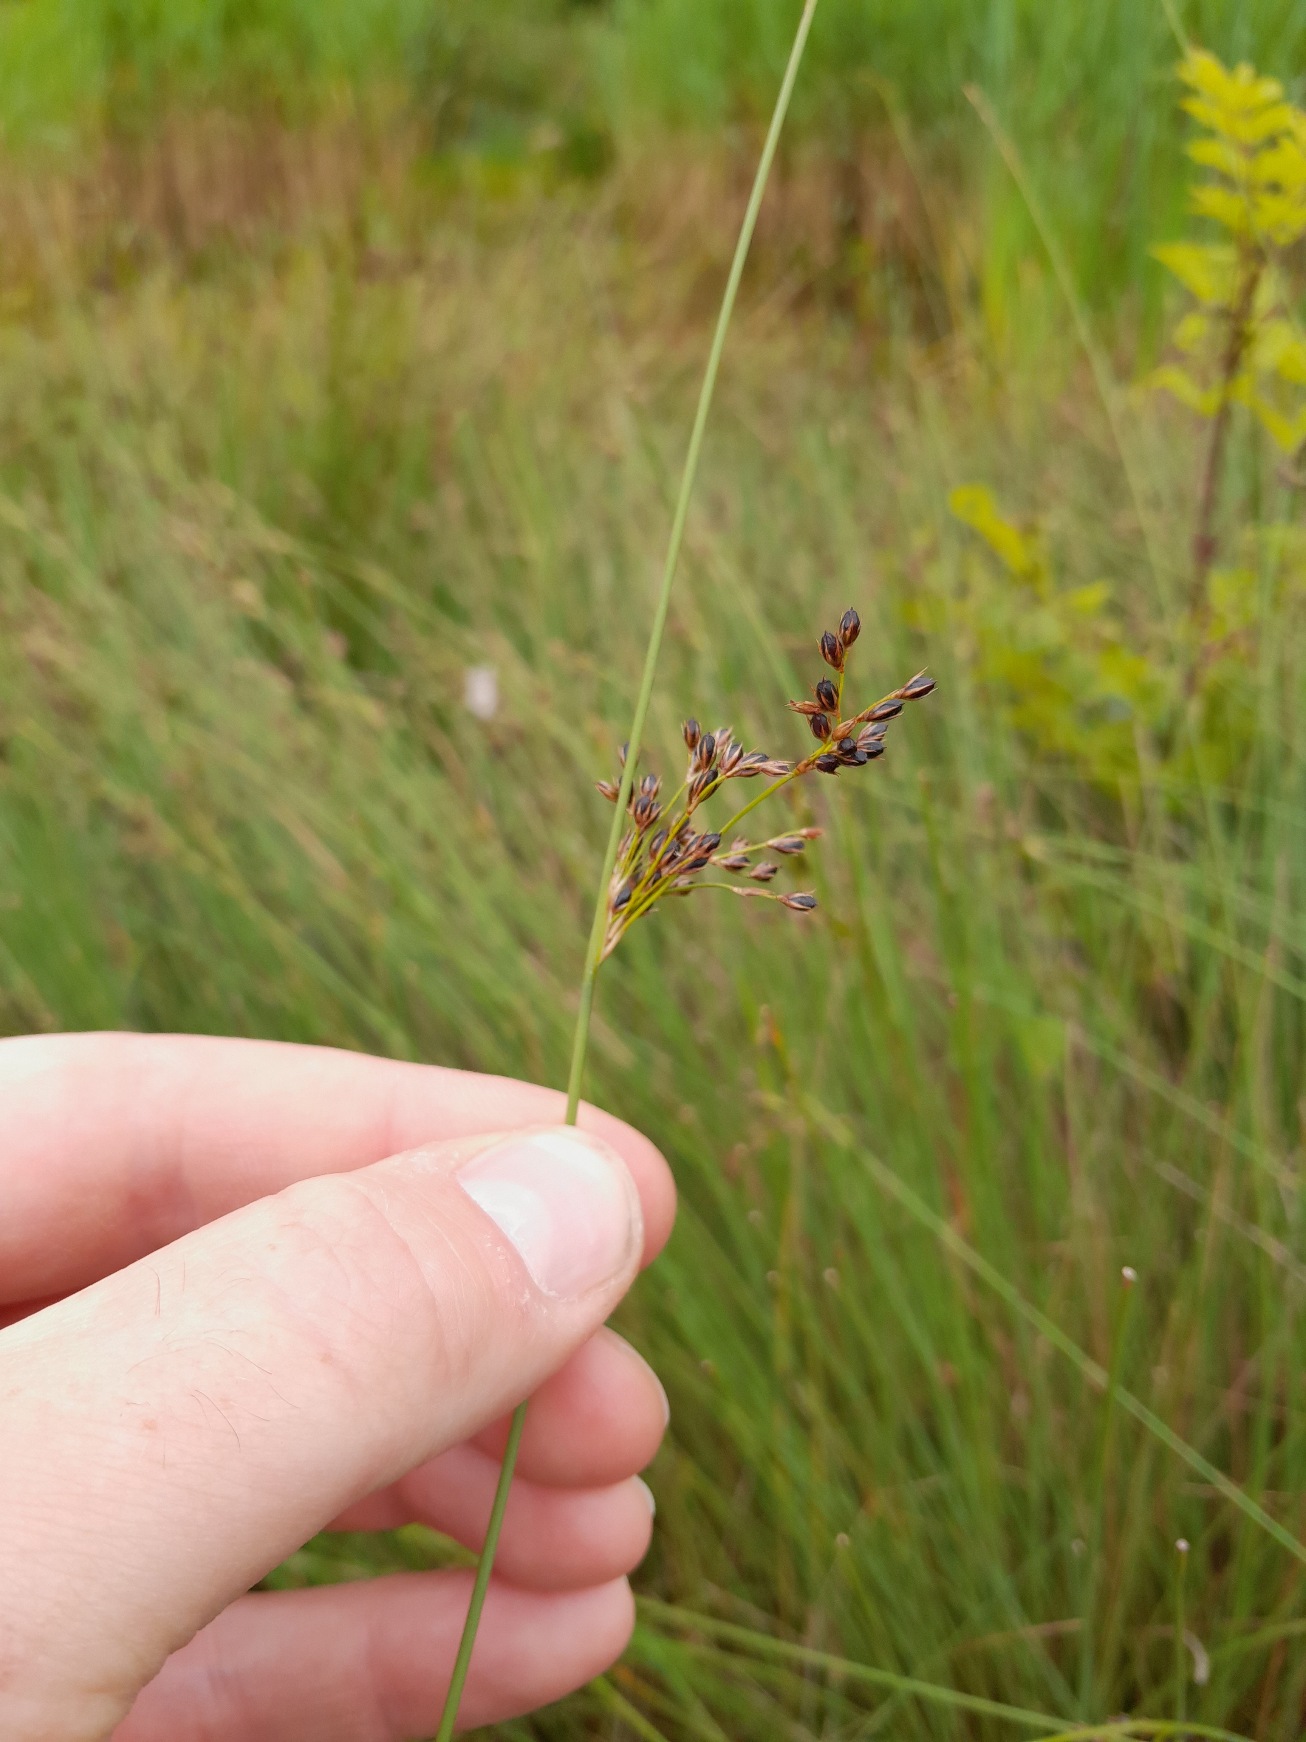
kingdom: Plantae
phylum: Tracheophyta
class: Liliopsida
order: Poales
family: Juncaceae
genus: Juncus
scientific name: Juncus inflexus
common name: Blågrå siv
